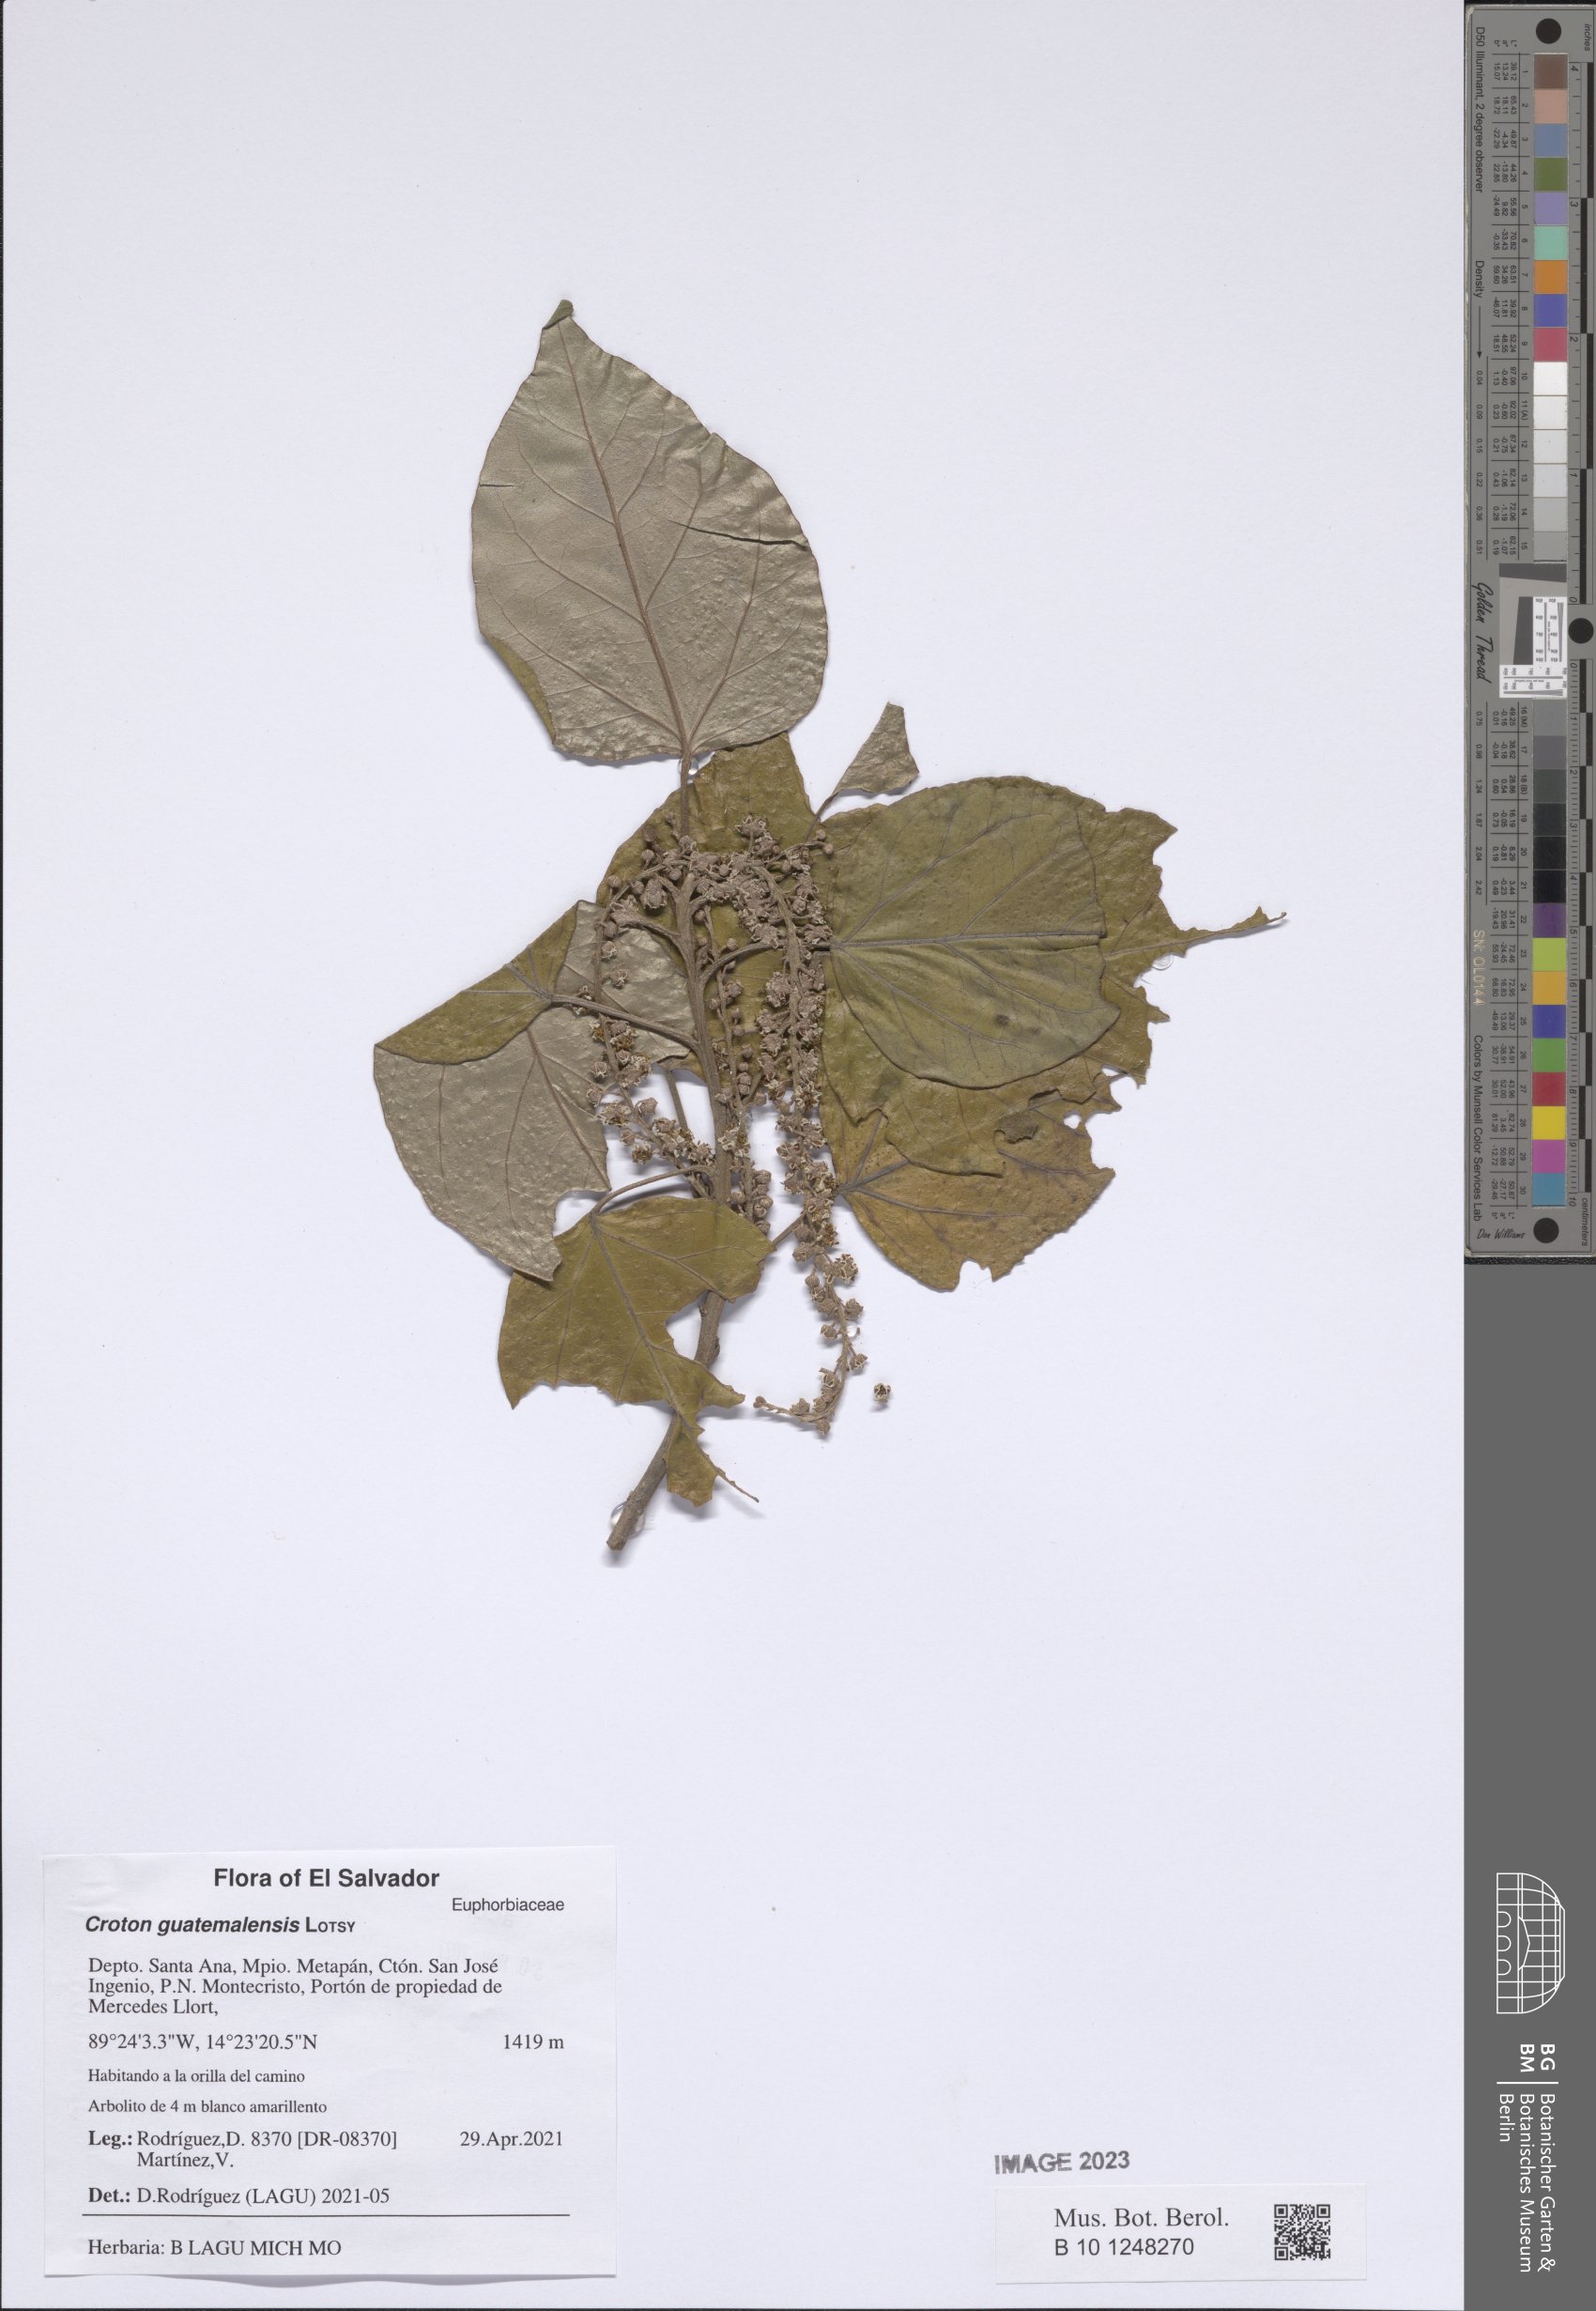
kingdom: Plantae
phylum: Tracheophyta
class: Magnoliopsida
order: Malpighiales
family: Euphorbiaceae
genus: Croton
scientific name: Croton guatemalensis
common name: Copalchi
